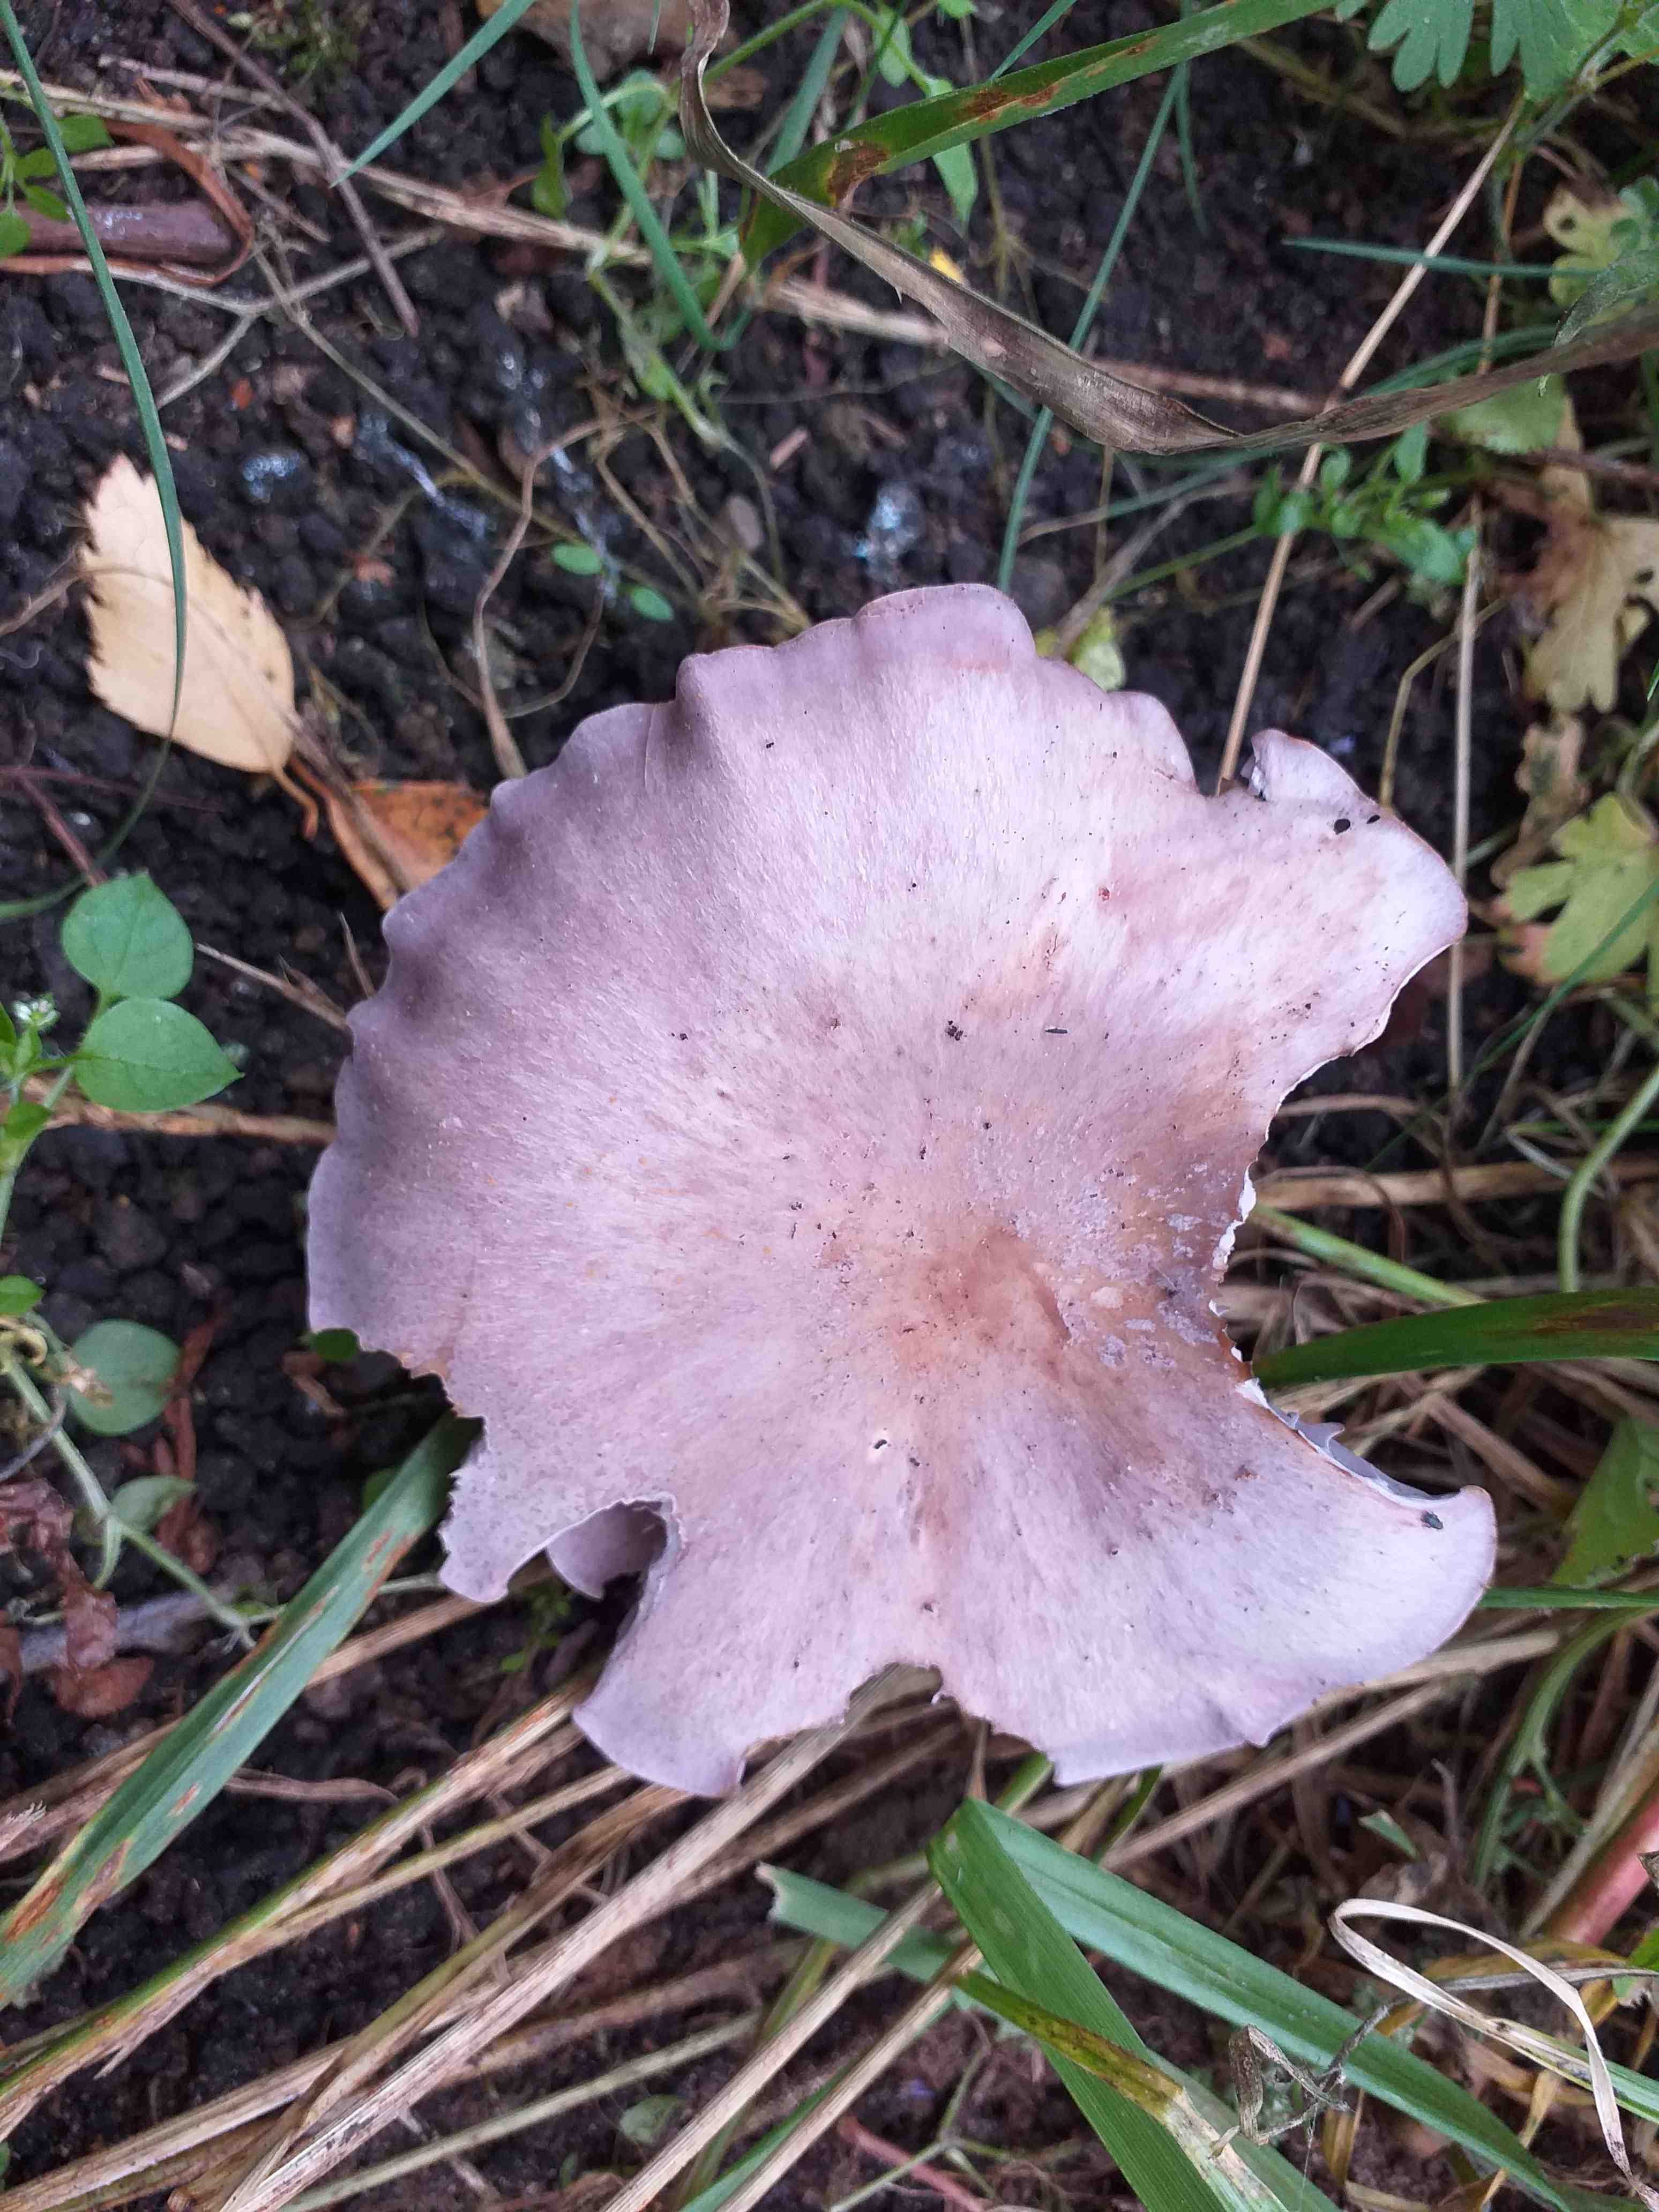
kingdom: Fungi
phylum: Basidiomycota
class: Agaricomycetes
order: Agaricales
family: Tricholomataceae
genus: Lepista
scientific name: Lepista nuda
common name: violet hekseringshat
